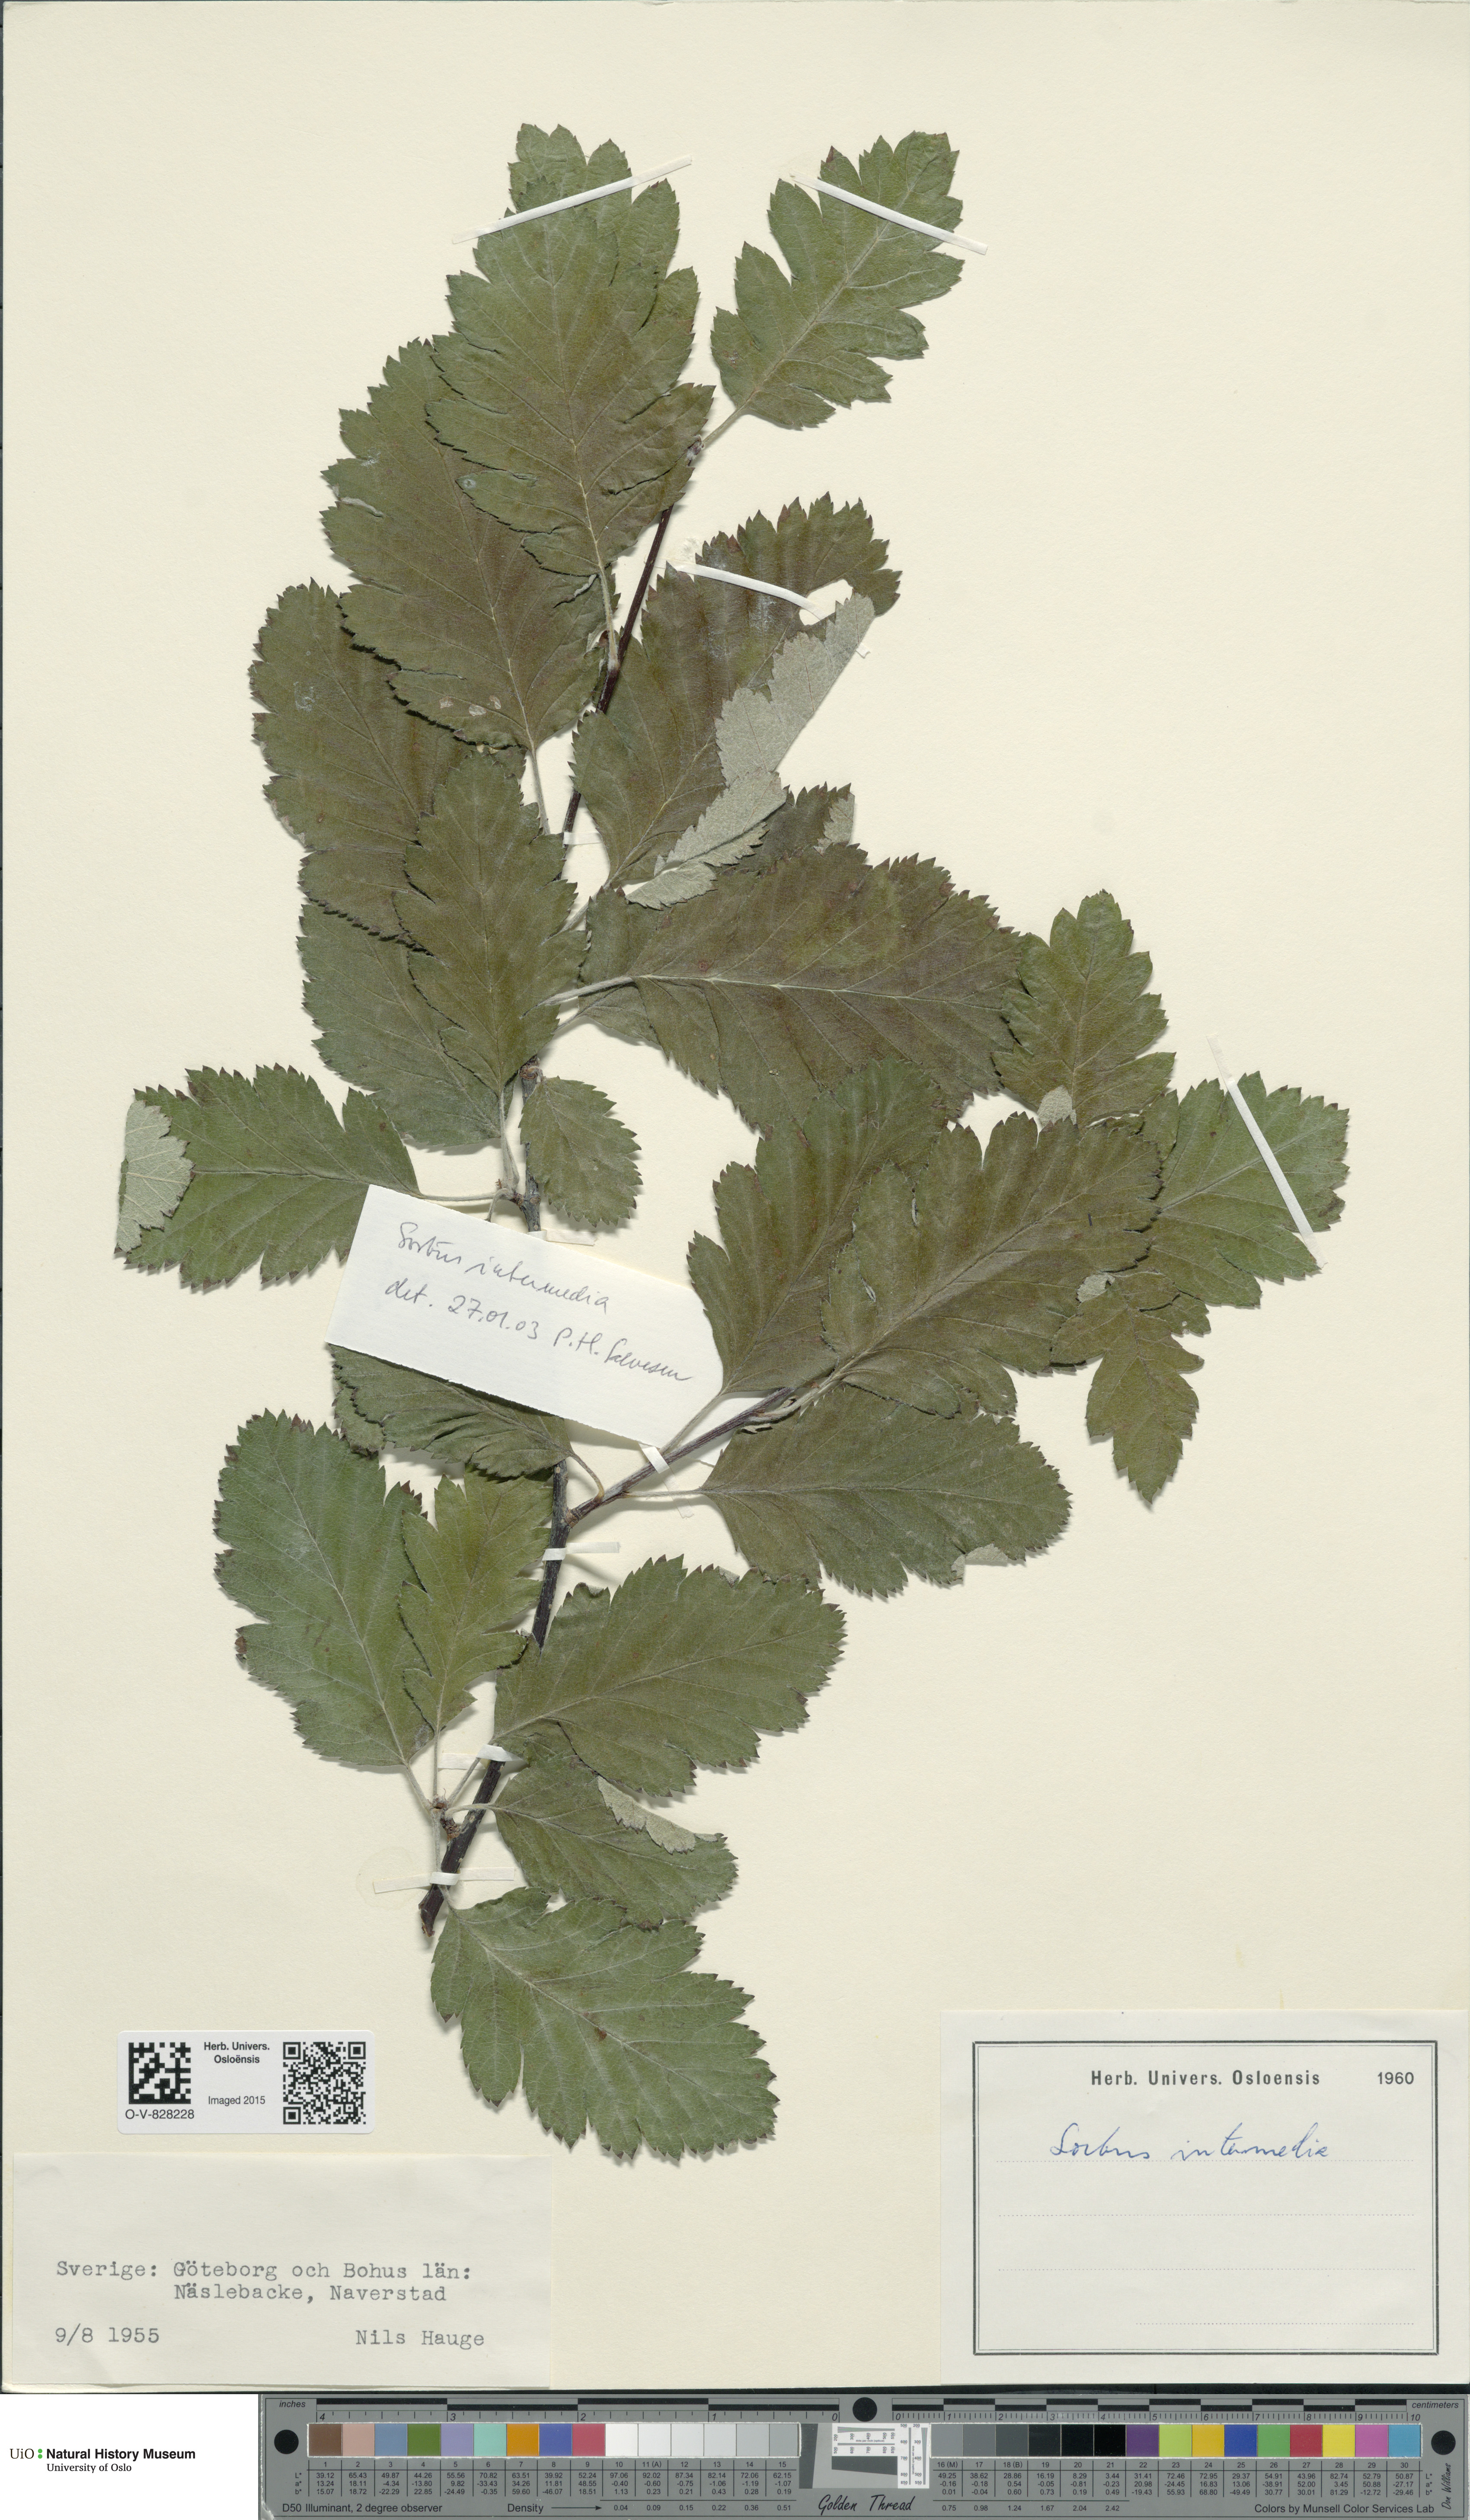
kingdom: Plantae
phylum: Tracheophyta
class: Magnoliopsida
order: Rosales
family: Rosaceae
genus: Scandosorbus
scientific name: Scandosorbus intermedia
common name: Swedish whitebeam
